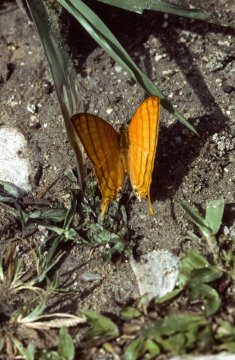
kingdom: Animalia
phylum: Arthropoda
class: Insecta
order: Lepidoptera
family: Nymphalidae
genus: Marpesia
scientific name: Marpesia harmonia
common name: Pale Daggerwing
